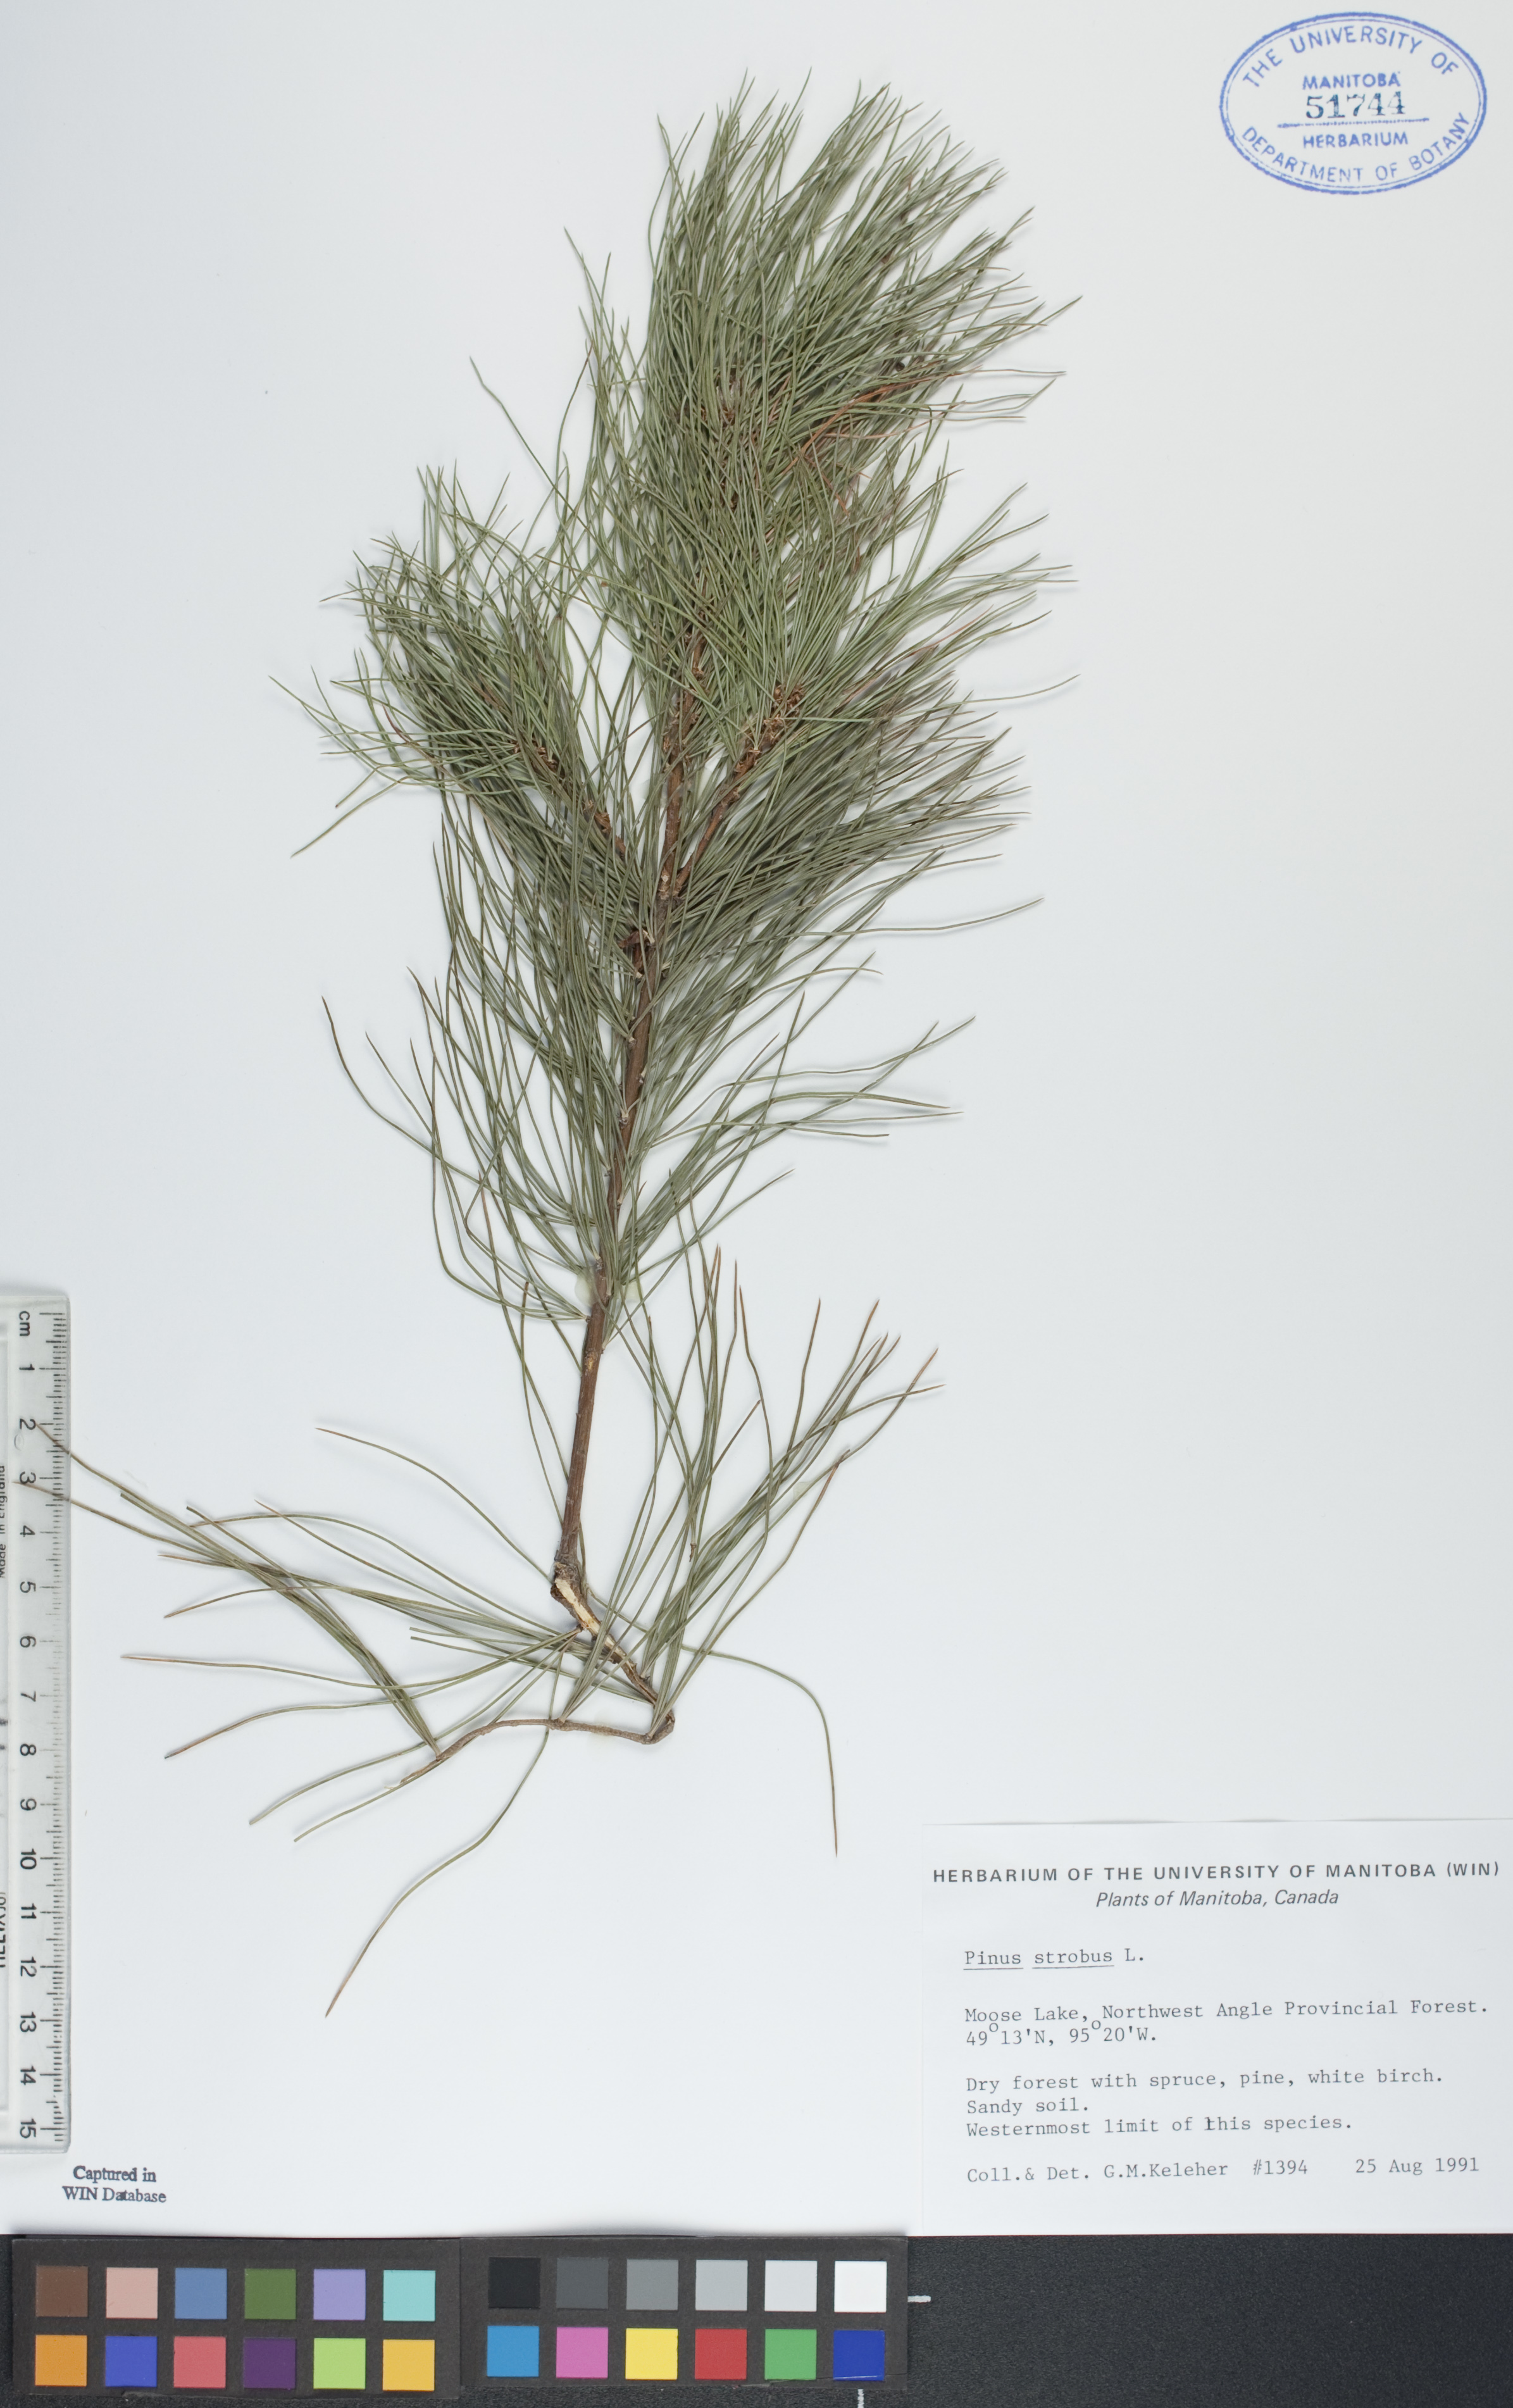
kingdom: Plantae
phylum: Tracheophyta
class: Pinopsida
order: Pinales
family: Pinaceae
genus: Pinus
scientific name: Pinus strobus
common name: Weymouth pine
